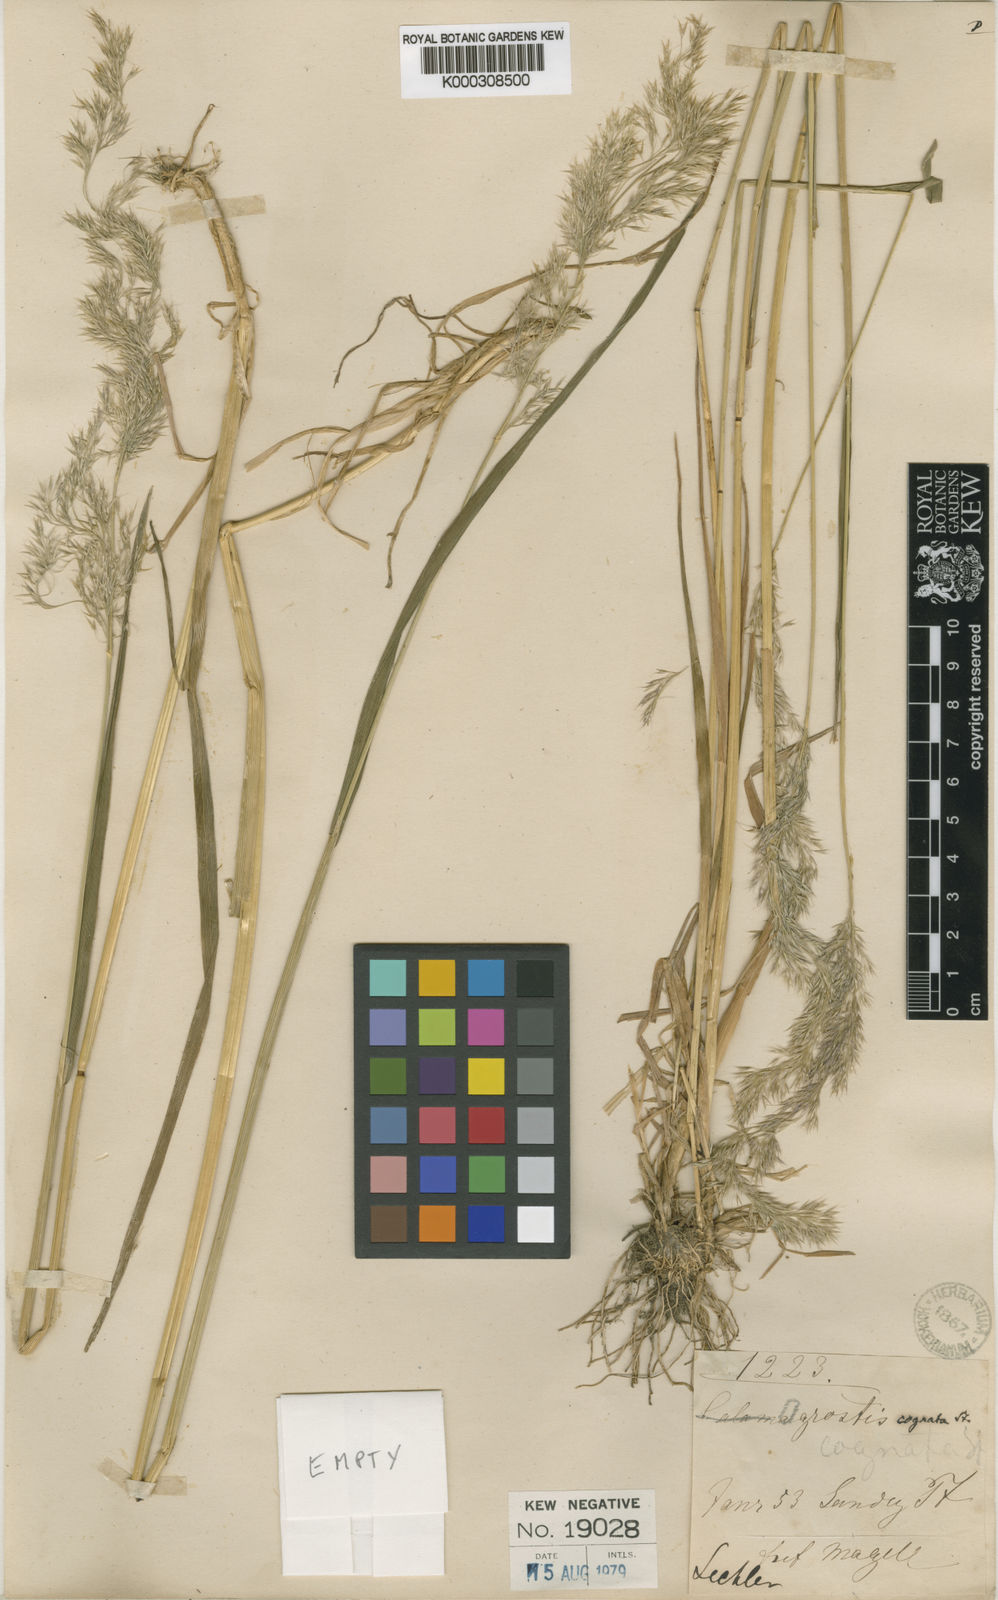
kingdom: Plantae
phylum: Tracheophyta
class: Liliopsida
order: Poales
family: Poaceae
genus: Polypogon
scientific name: Polypogon
